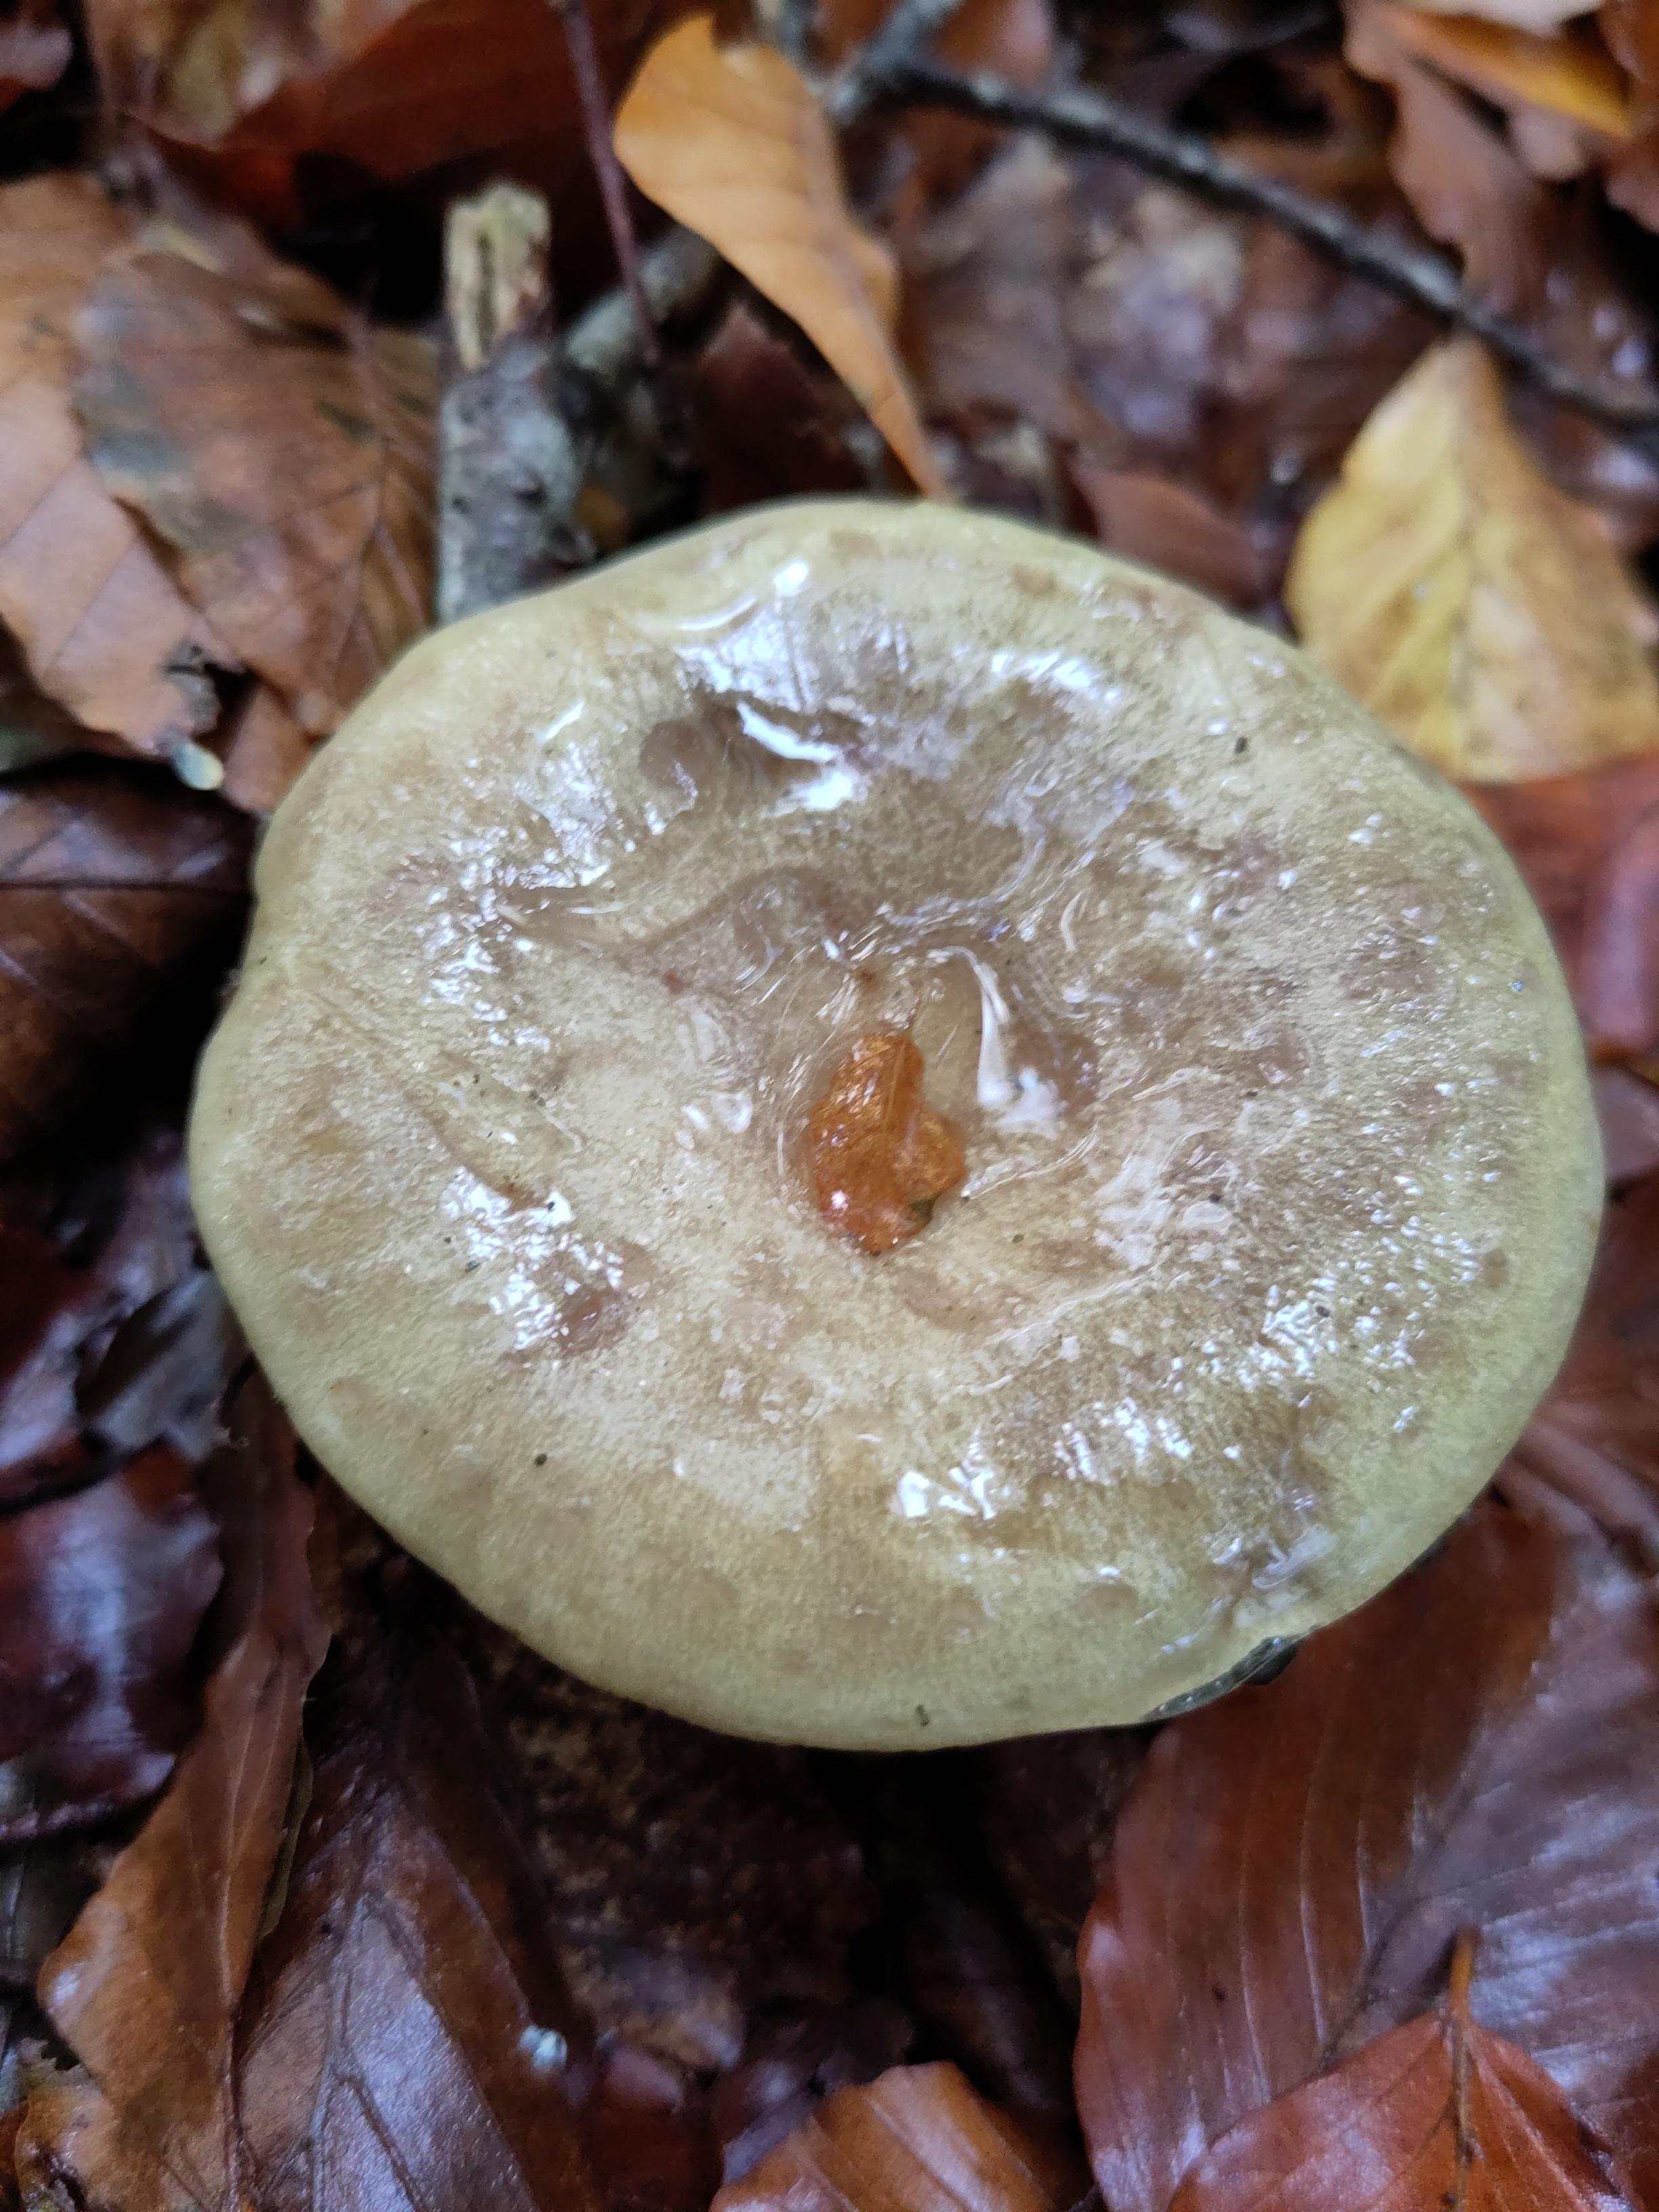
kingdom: Fungi
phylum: Basidiomycota
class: Agaricomycetes
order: Russulales
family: Russulaceae
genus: Lactarius
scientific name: Lactarius blennius
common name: dråbeplettet mælkehat
